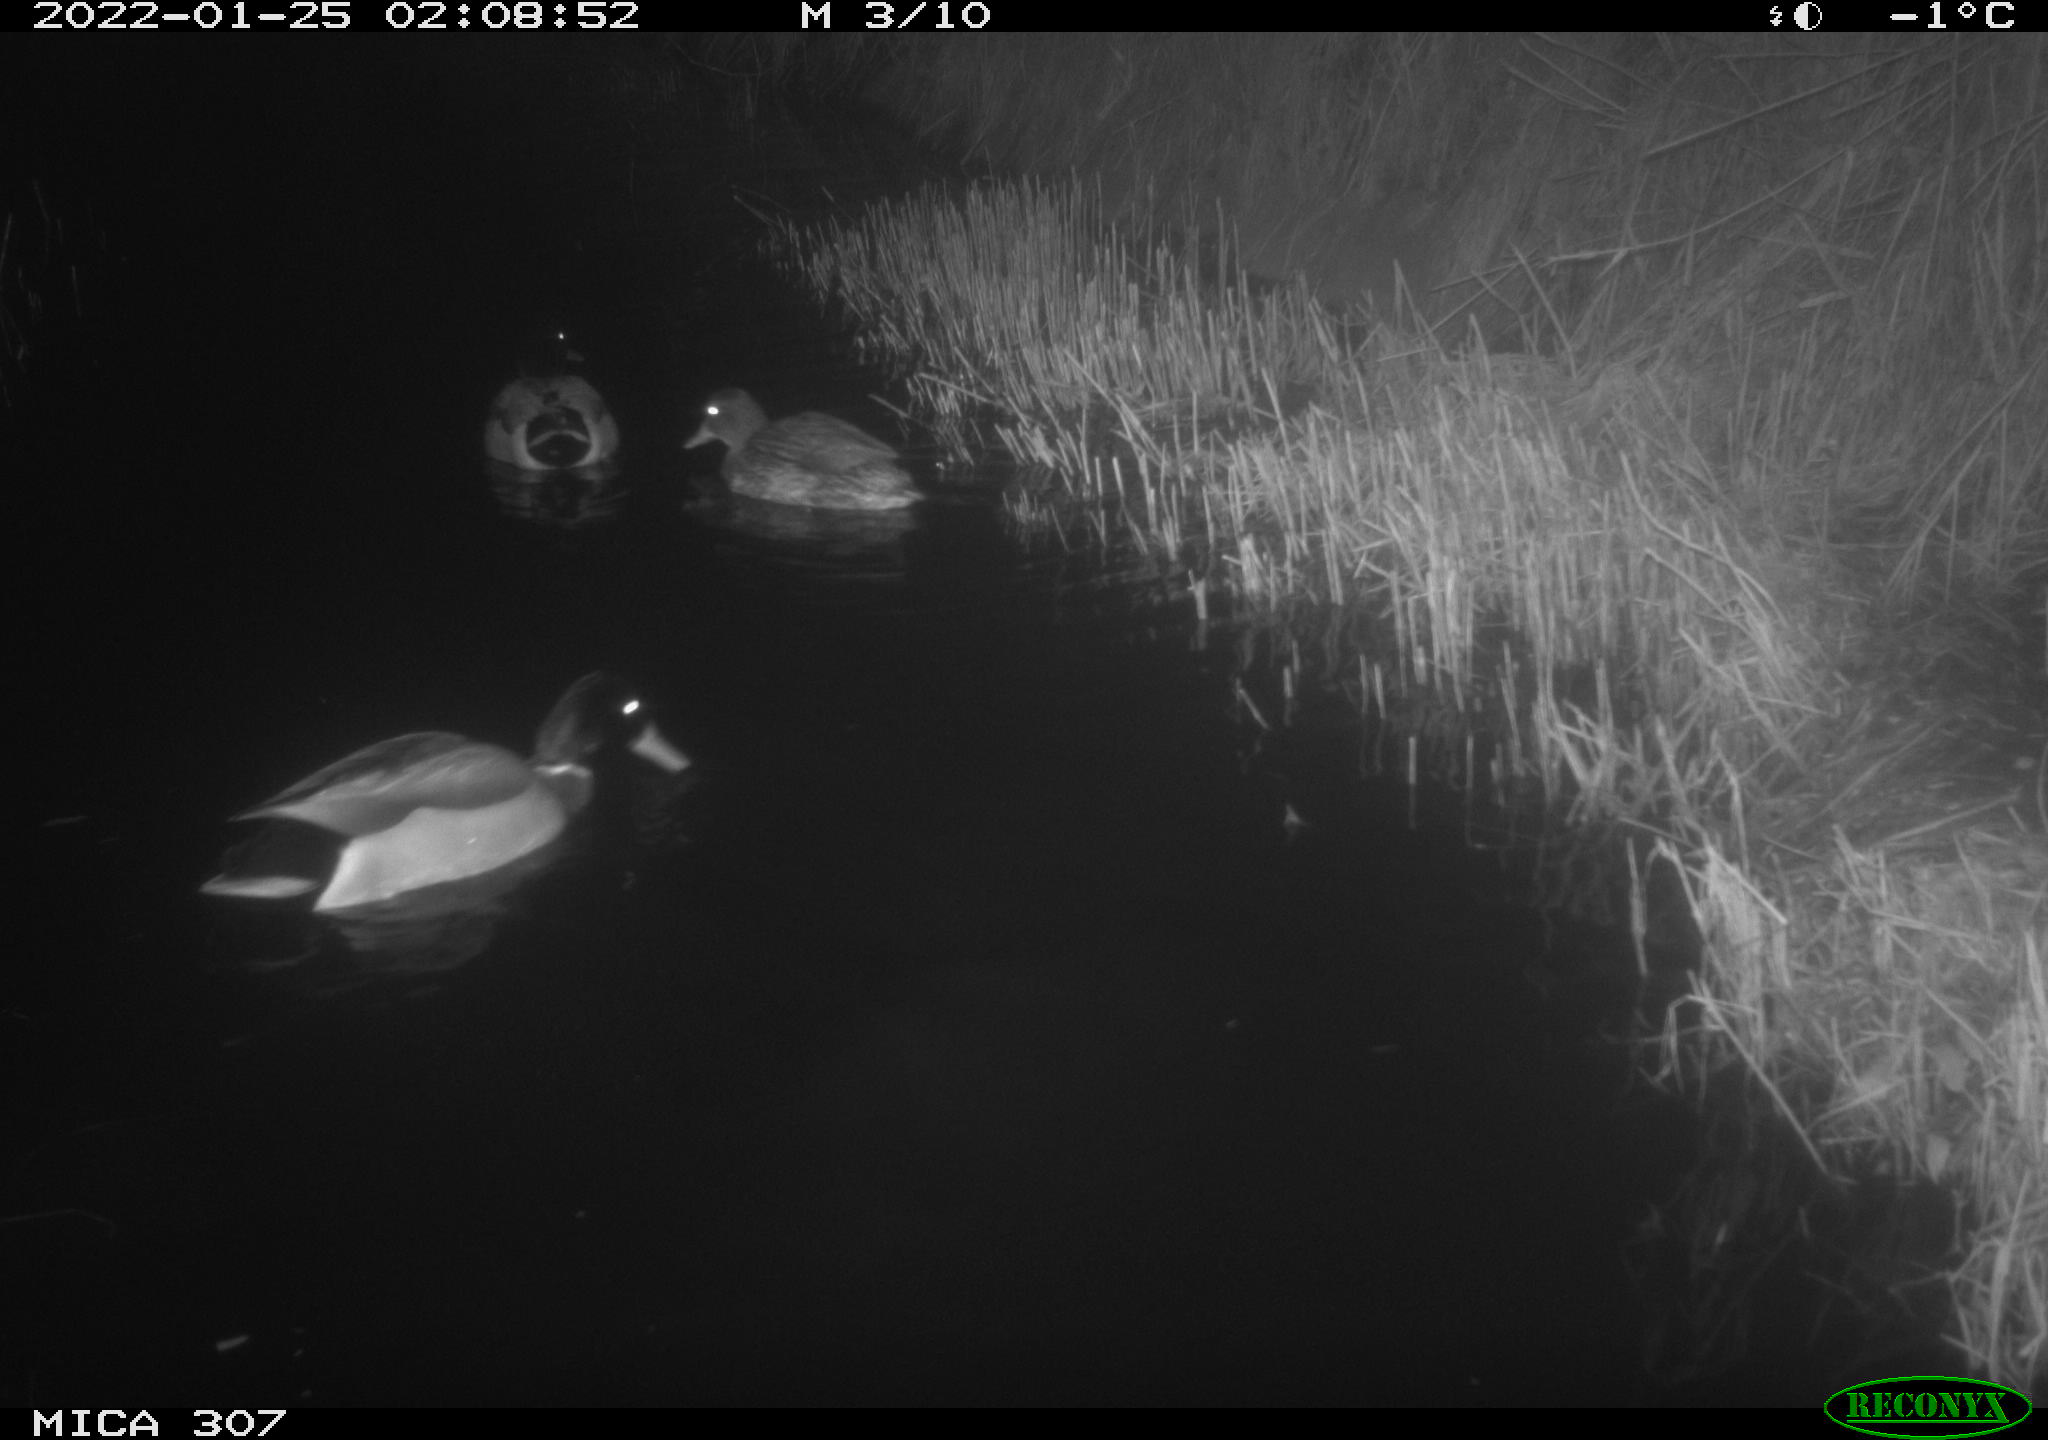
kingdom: Animalia
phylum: Chordata
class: Aves
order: Anseriformes
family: Anatidae
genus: Anas
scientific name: Anas
